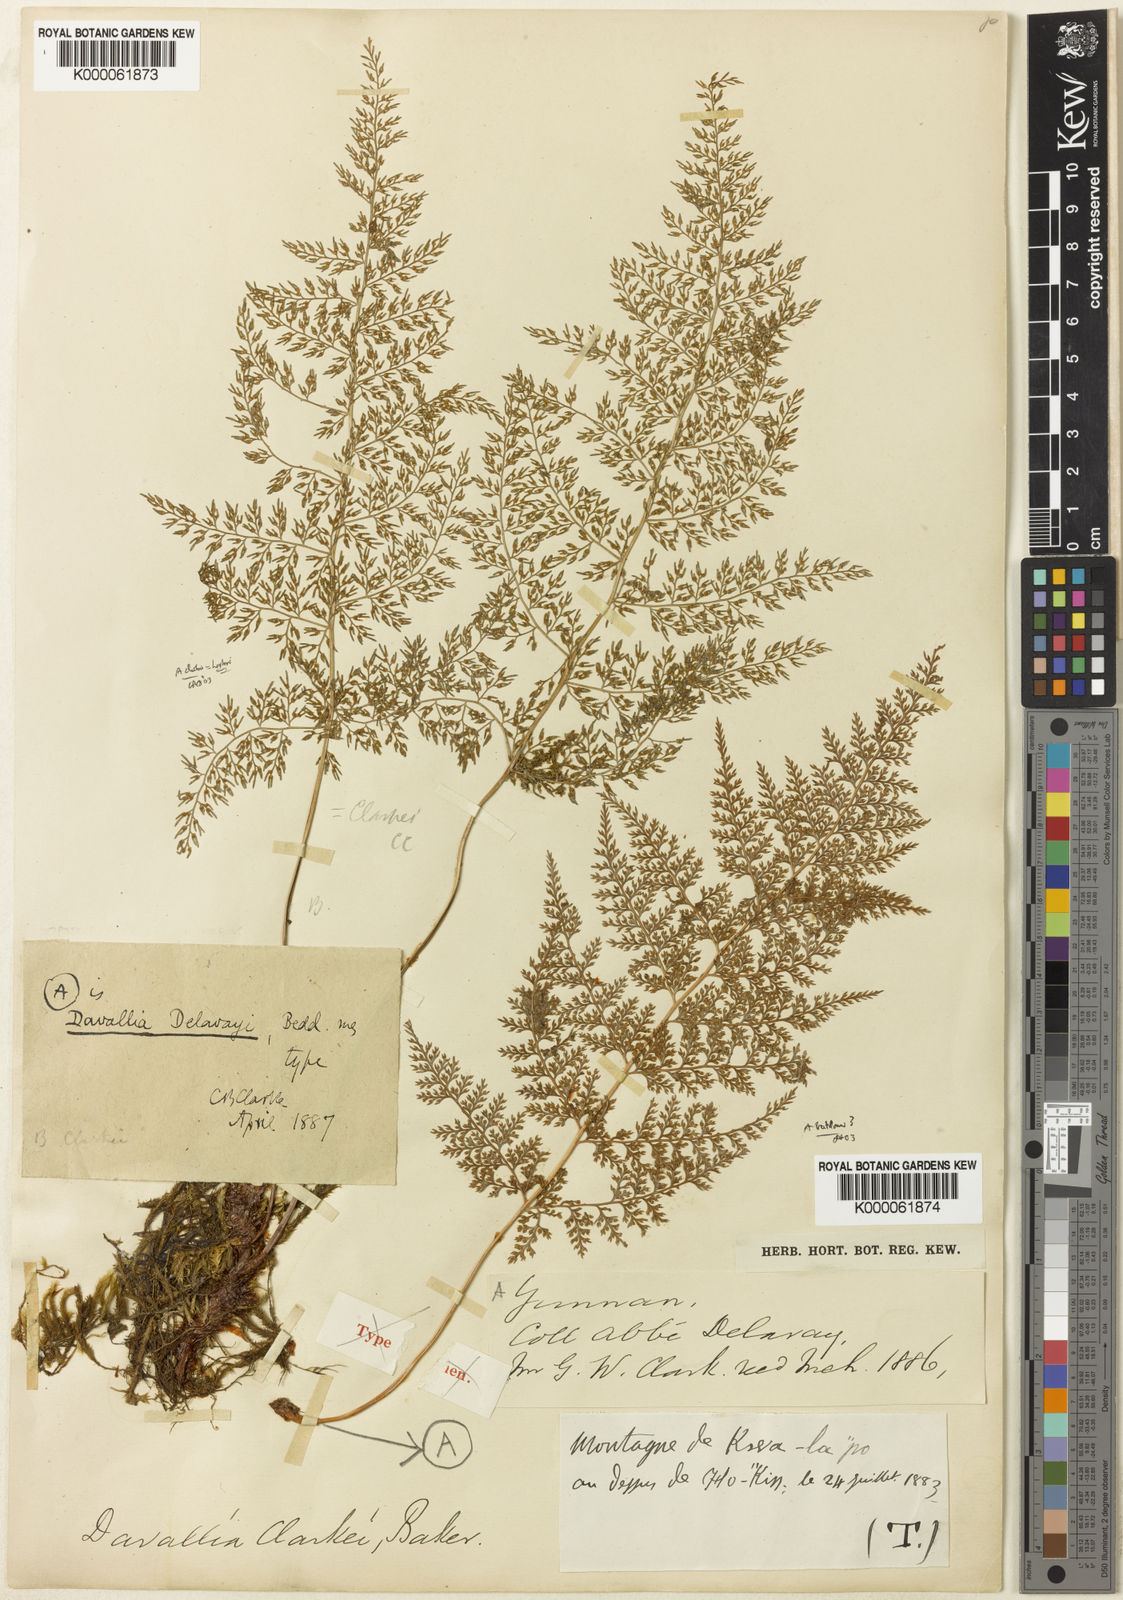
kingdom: Plantae
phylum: Tracheophyta
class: Polypodiopsida
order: Polypodiales
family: Davalliaceae
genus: Davallodes
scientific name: Davallodes beddomei
